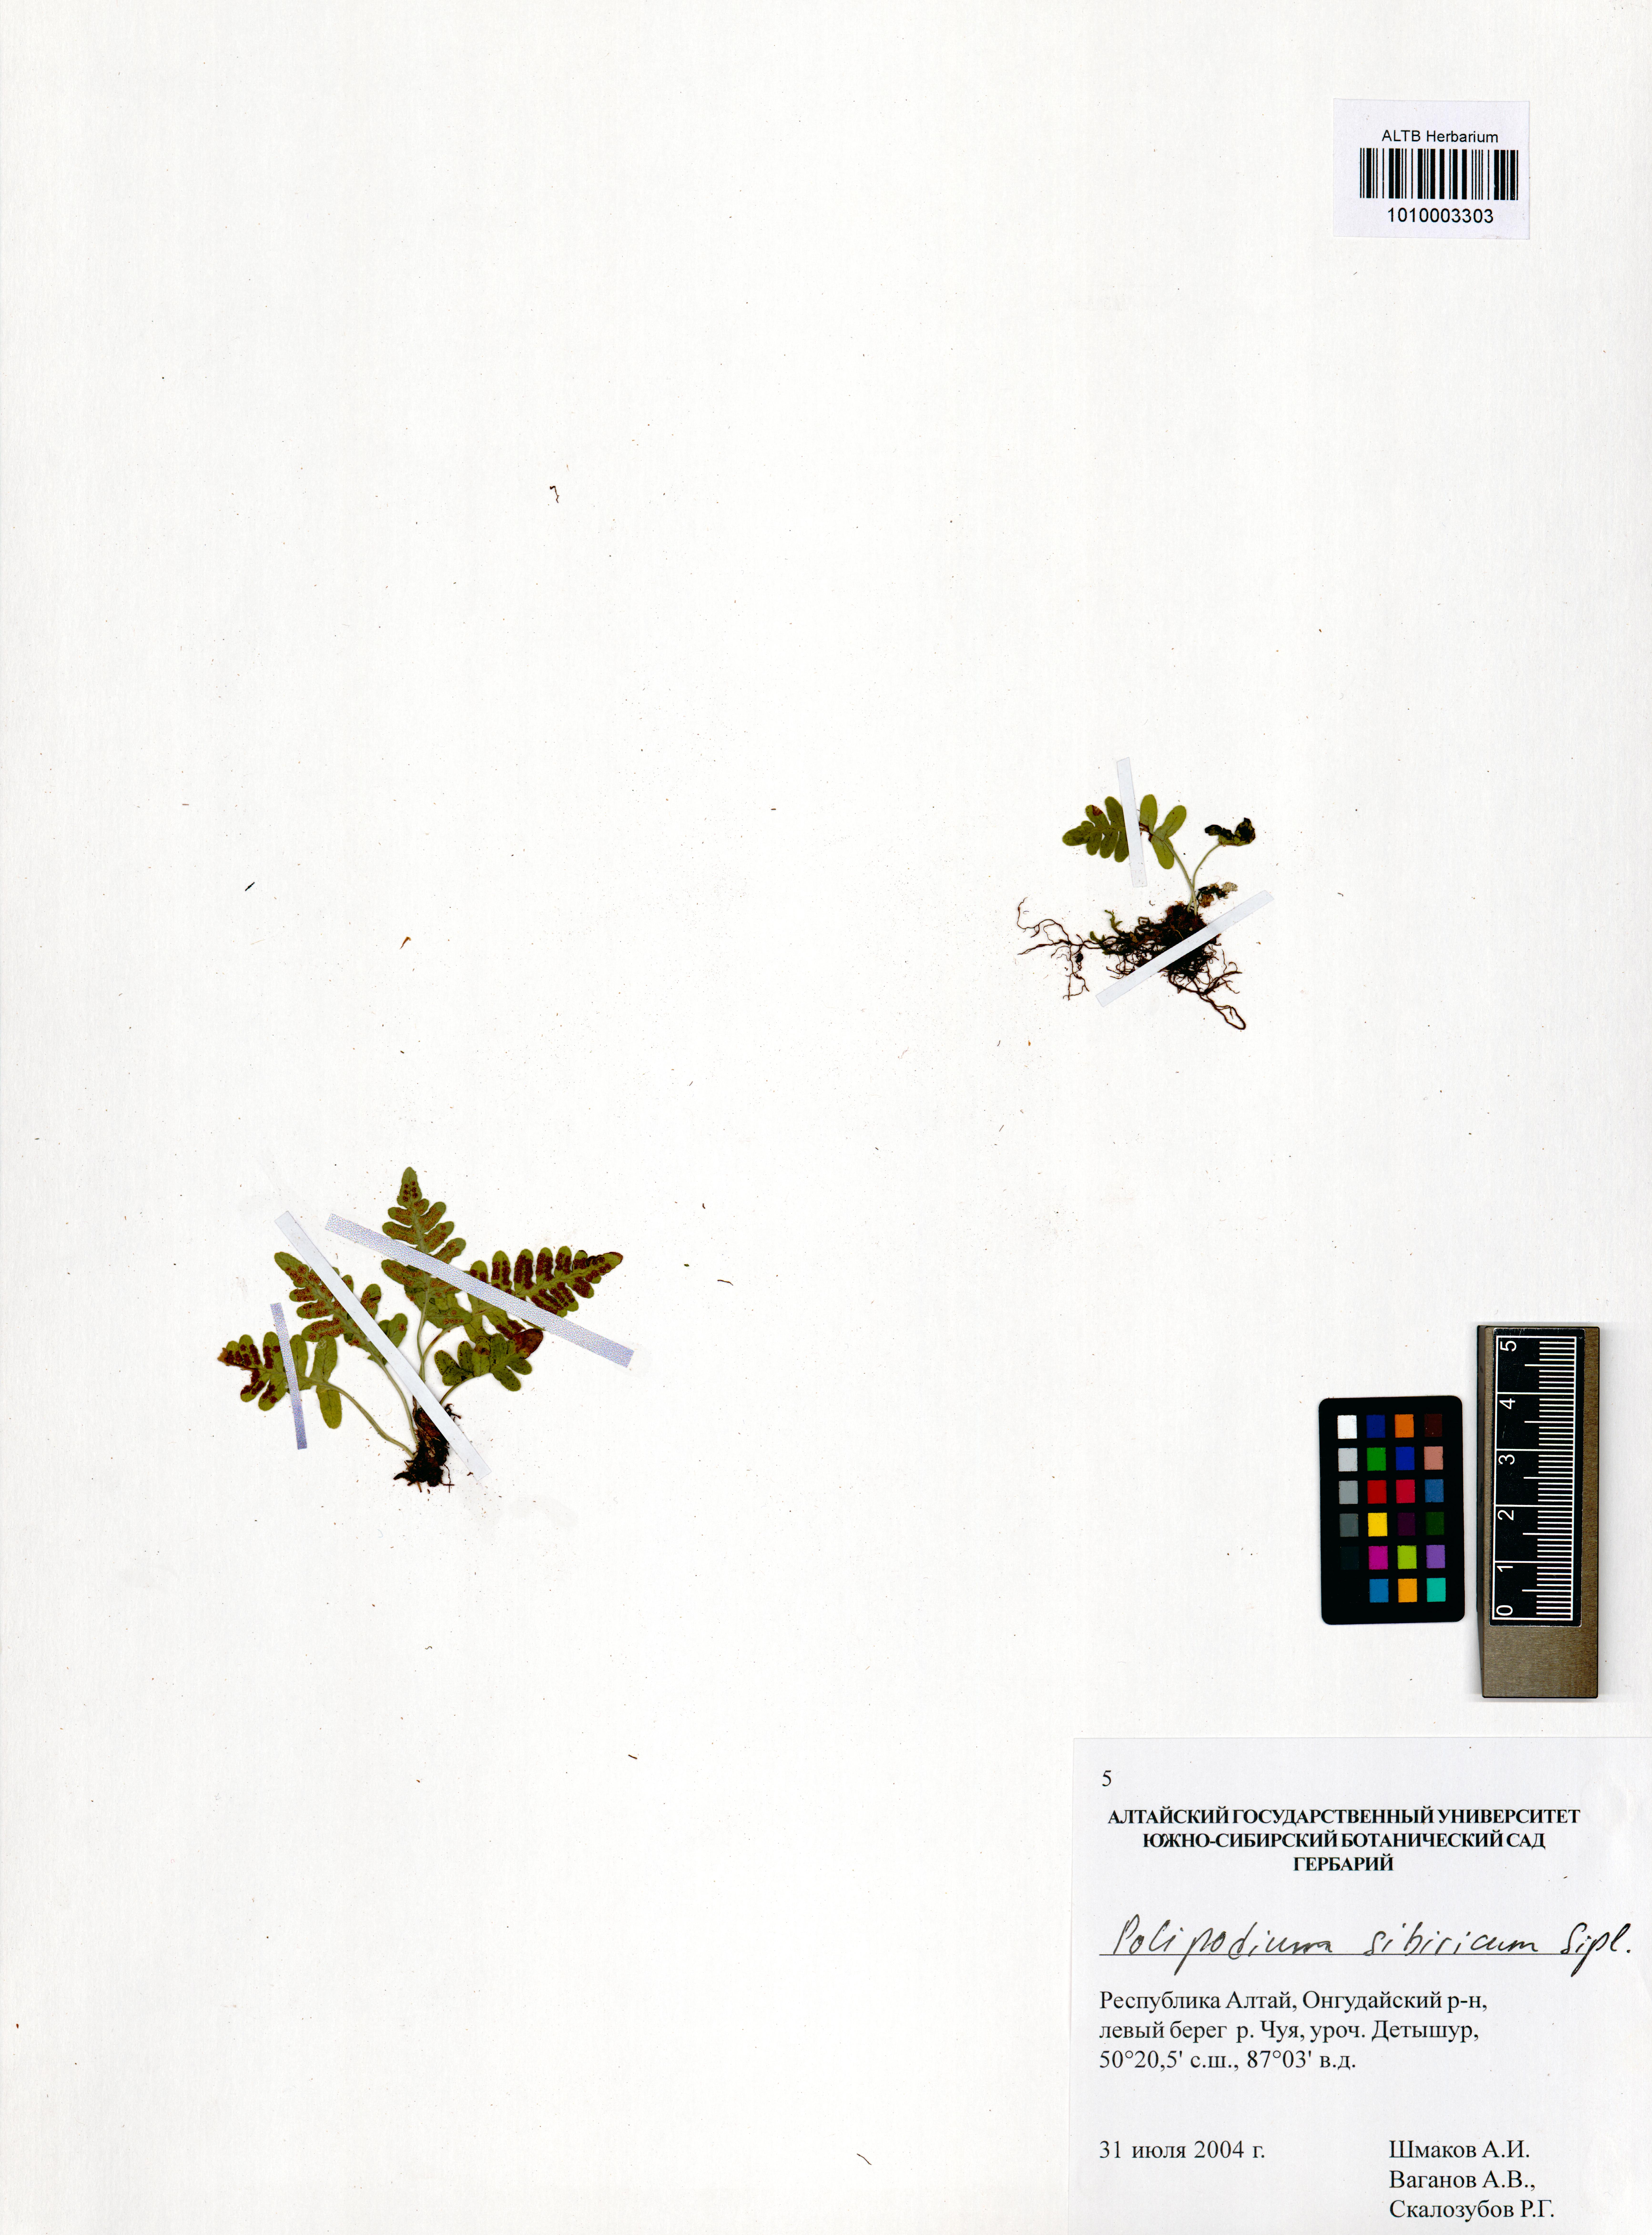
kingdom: Plantae
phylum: Tracheophyta
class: Polypodiopsida
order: Polypodiales
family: Polypodiaceae
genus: Polypodium
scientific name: Polypodium sibiricum
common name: Siberian polypody
